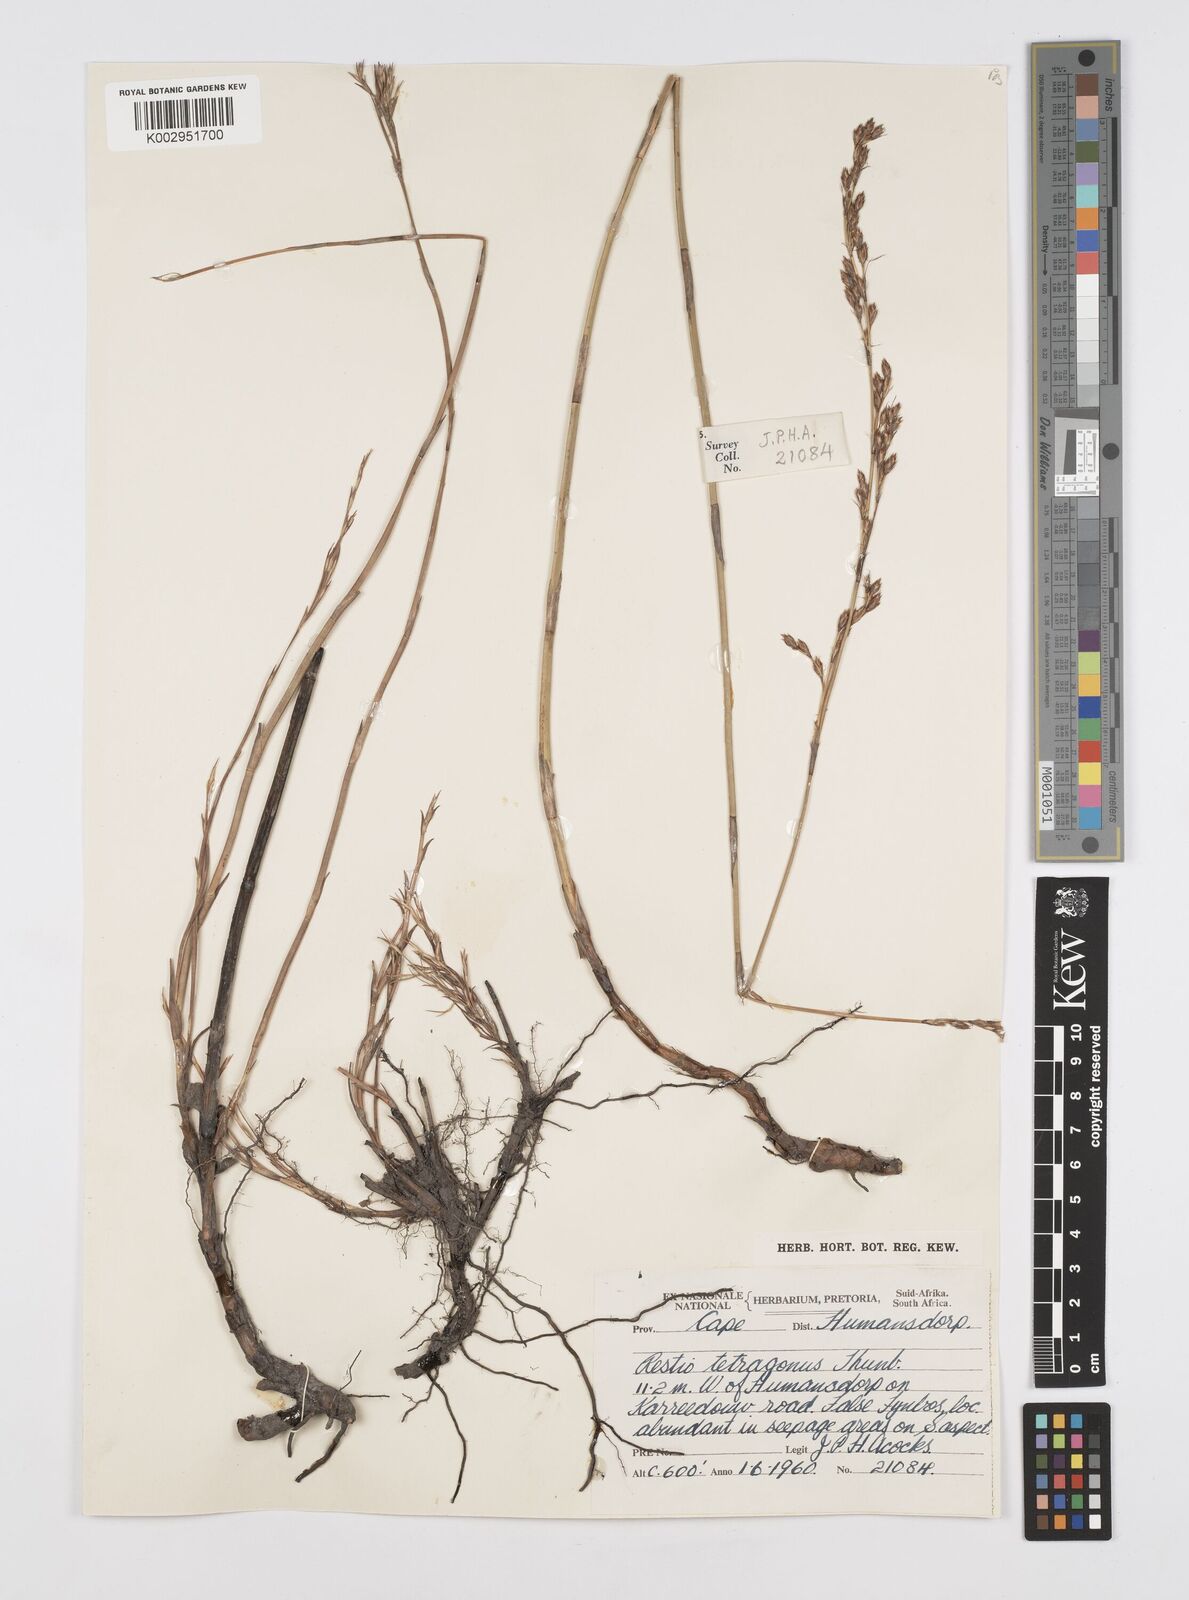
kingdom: Plantae
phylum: Tracheophyta
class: Liliopsida
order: Poales
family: Restionaceae
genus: Restio
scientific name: Restio tetragonus
